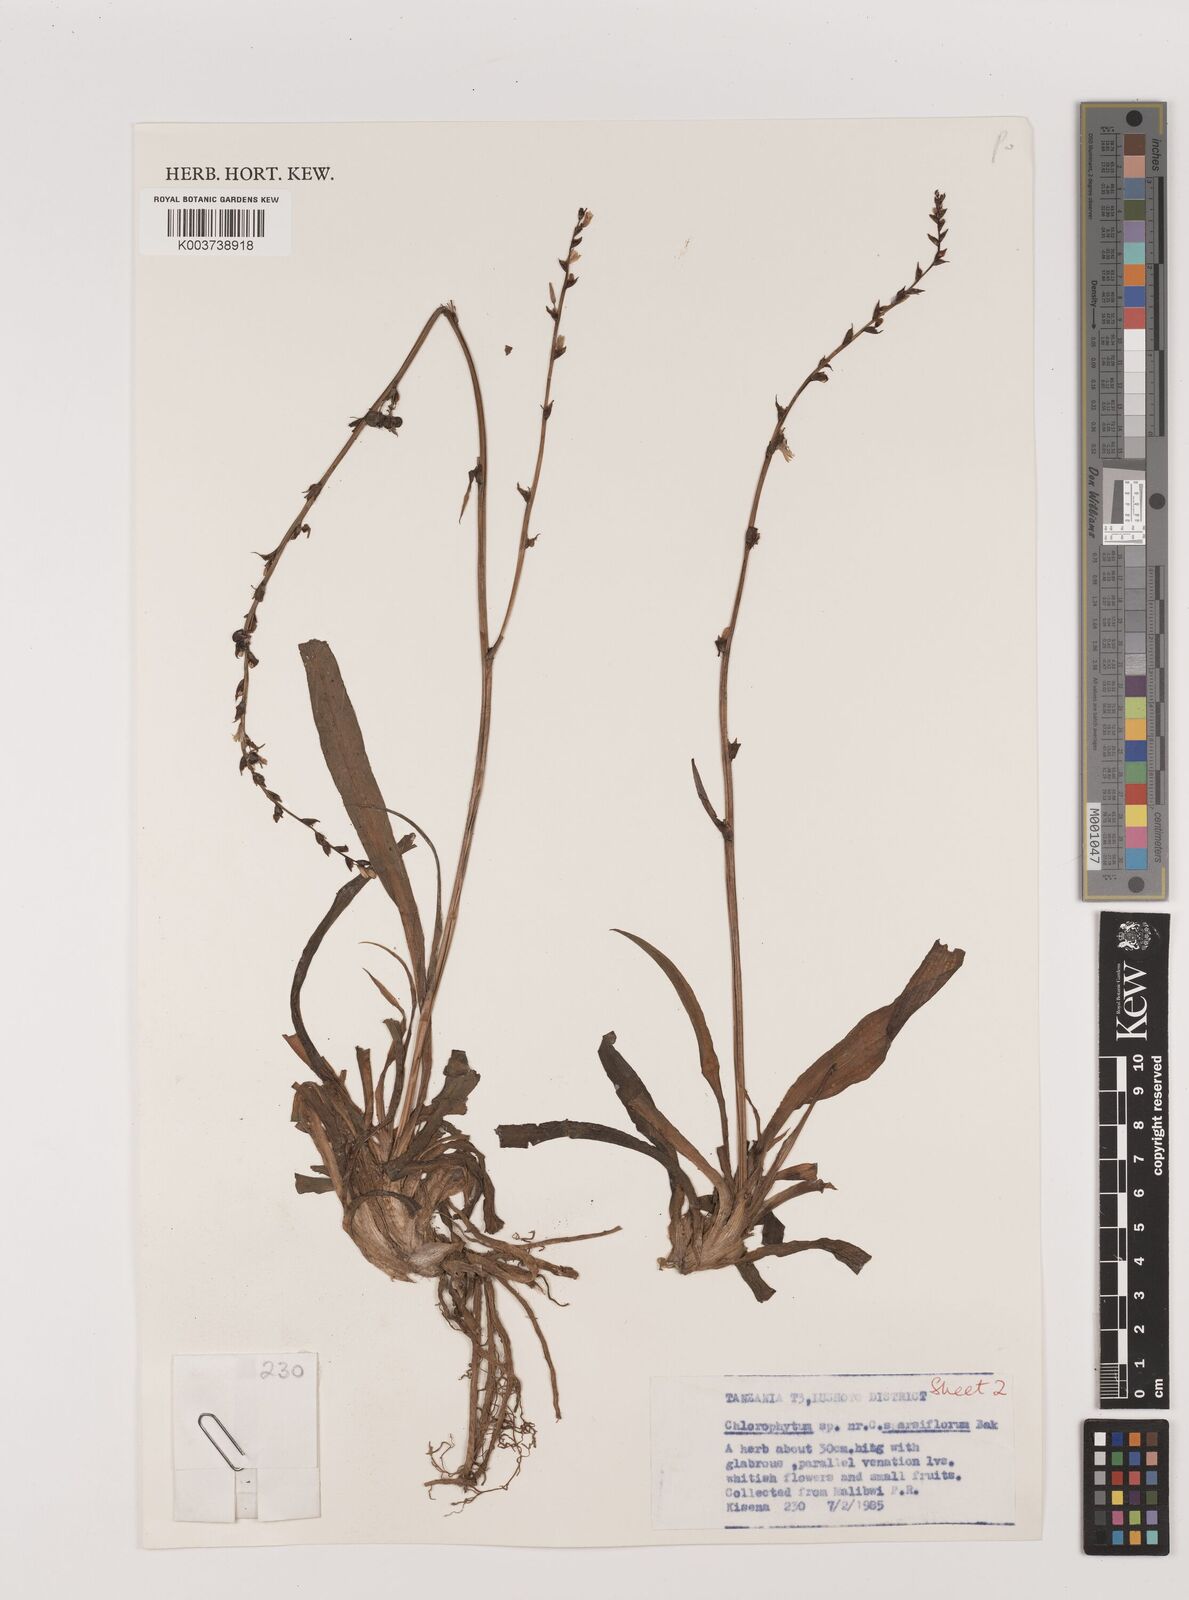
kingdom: Plantae
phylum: Tracheophyta
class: Liliopsida
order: Asparagales
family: Asparagaceae
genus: Chlorophytum
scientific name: Chlorophytum comosum
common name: Spider plant
